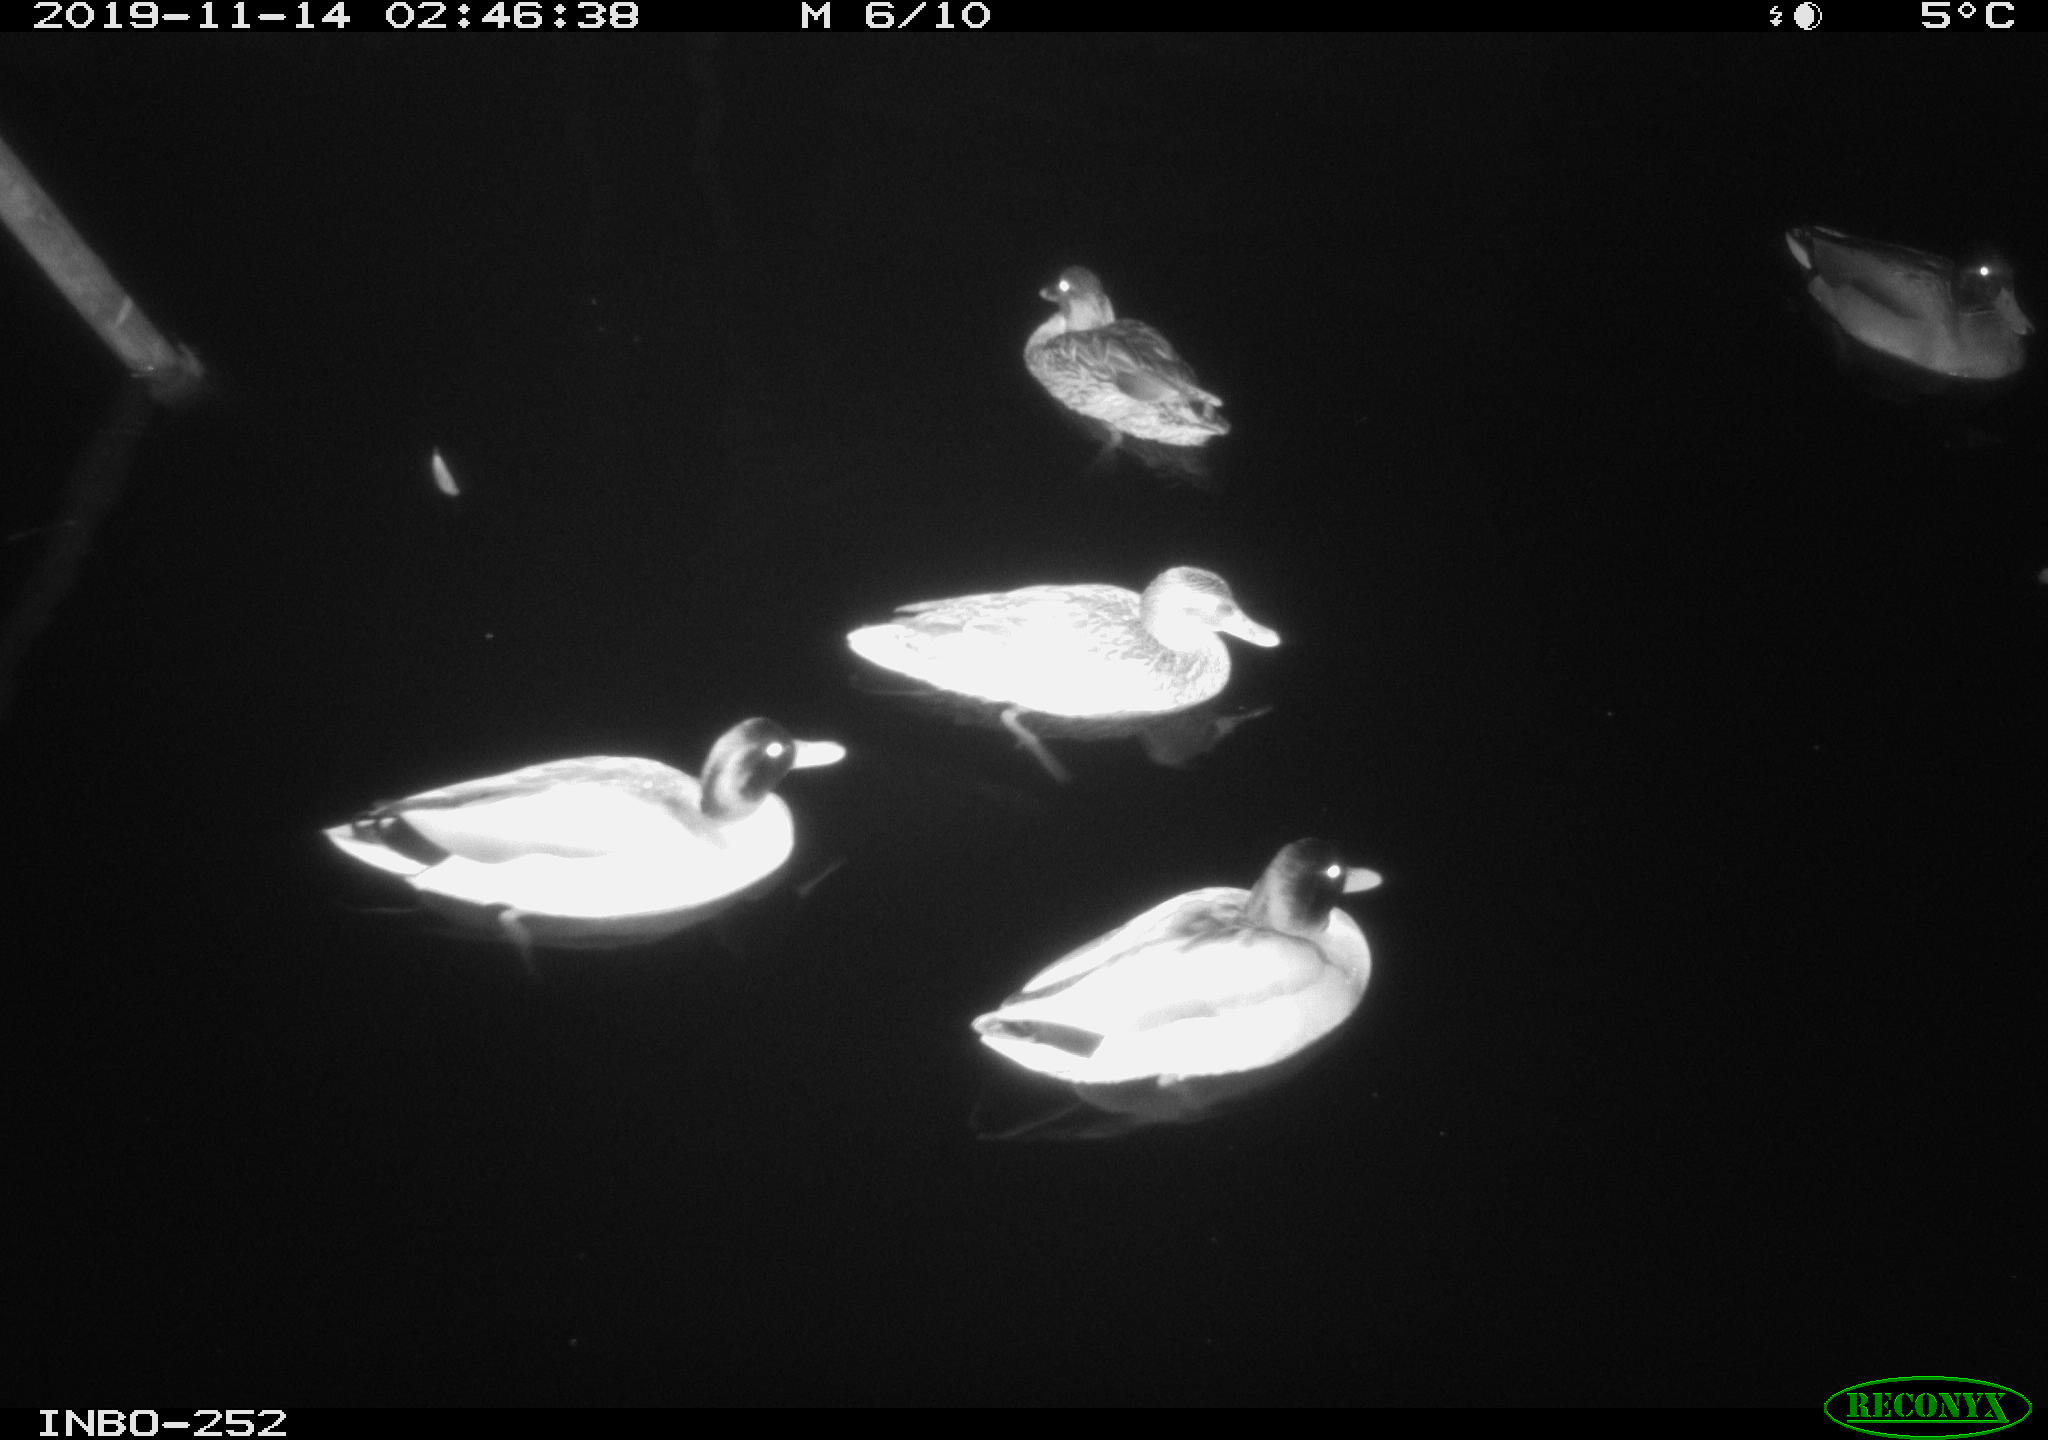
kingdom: Animalia
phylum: Chordata
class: Aves
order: Anseriformes
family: Anatidae
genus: Anas
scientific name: Anas platyrhynchos
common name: Mallard
